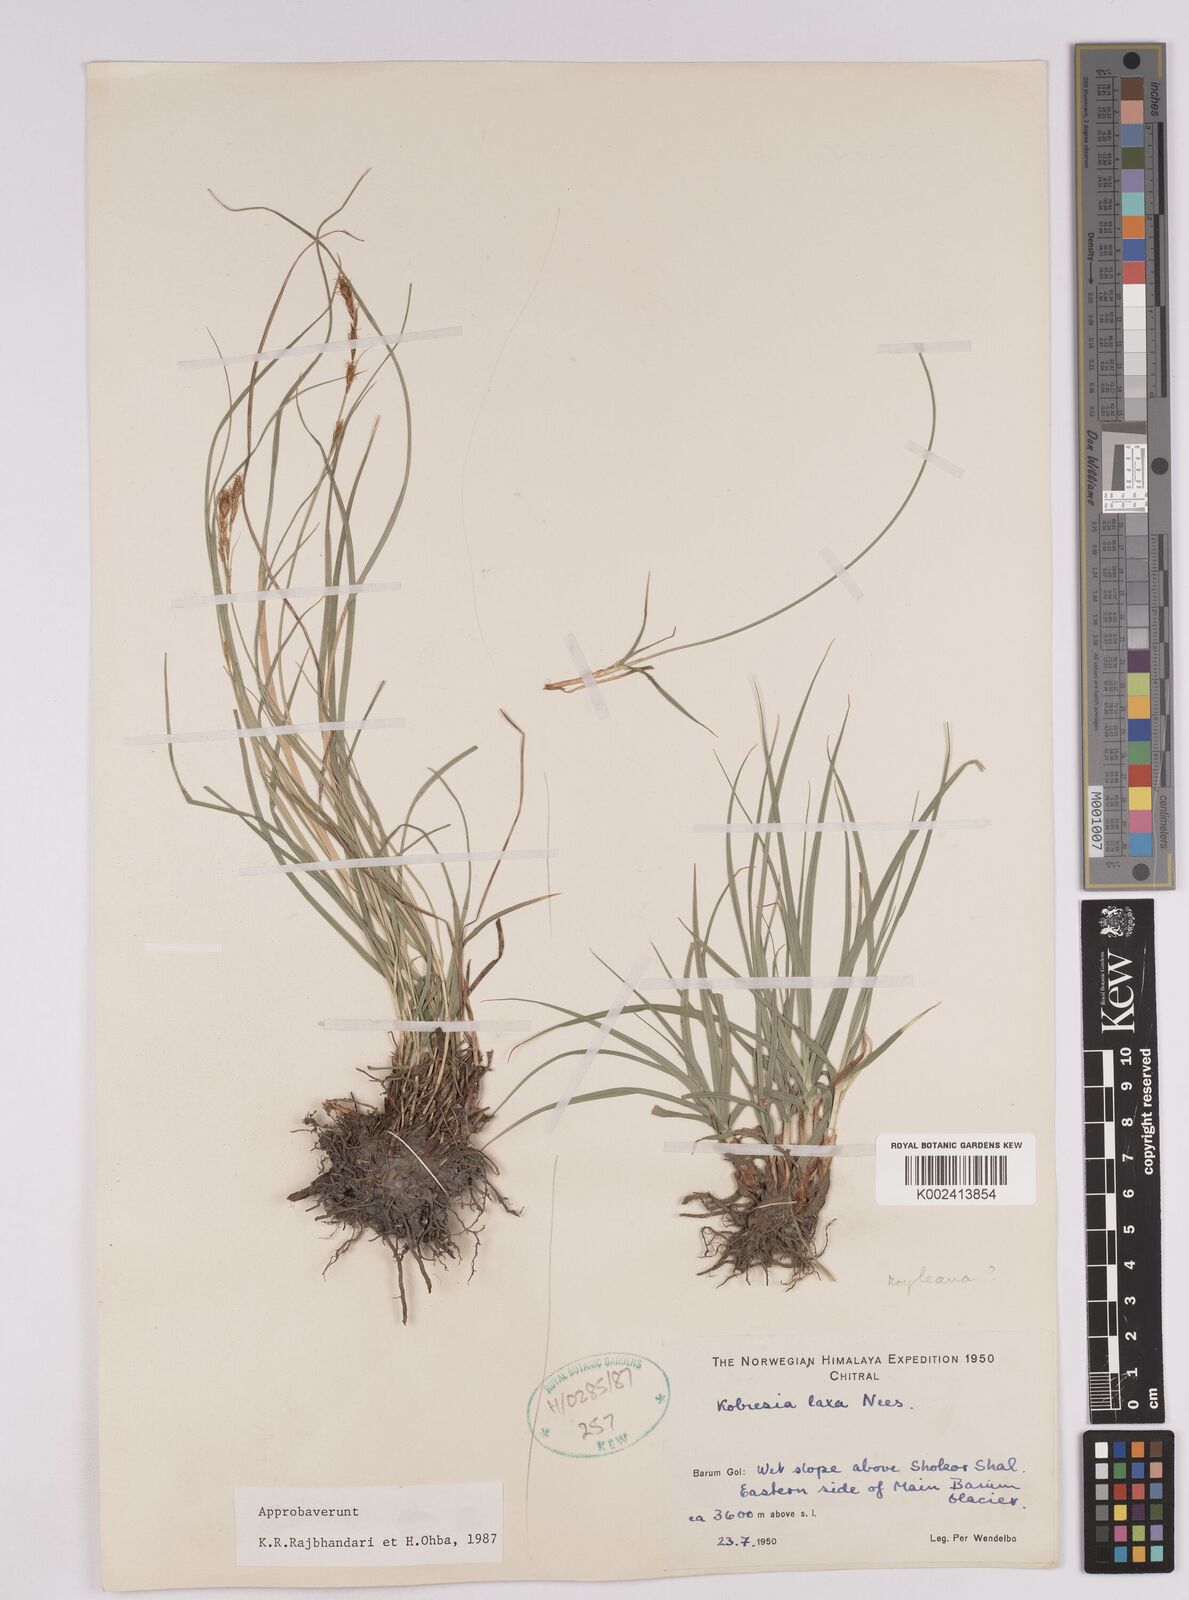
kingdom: Plantae
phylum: Tracheophyta
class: Liliopsida
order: Poales
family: Cyperaceae
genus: Carex
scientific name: Carex pseudolaxa
